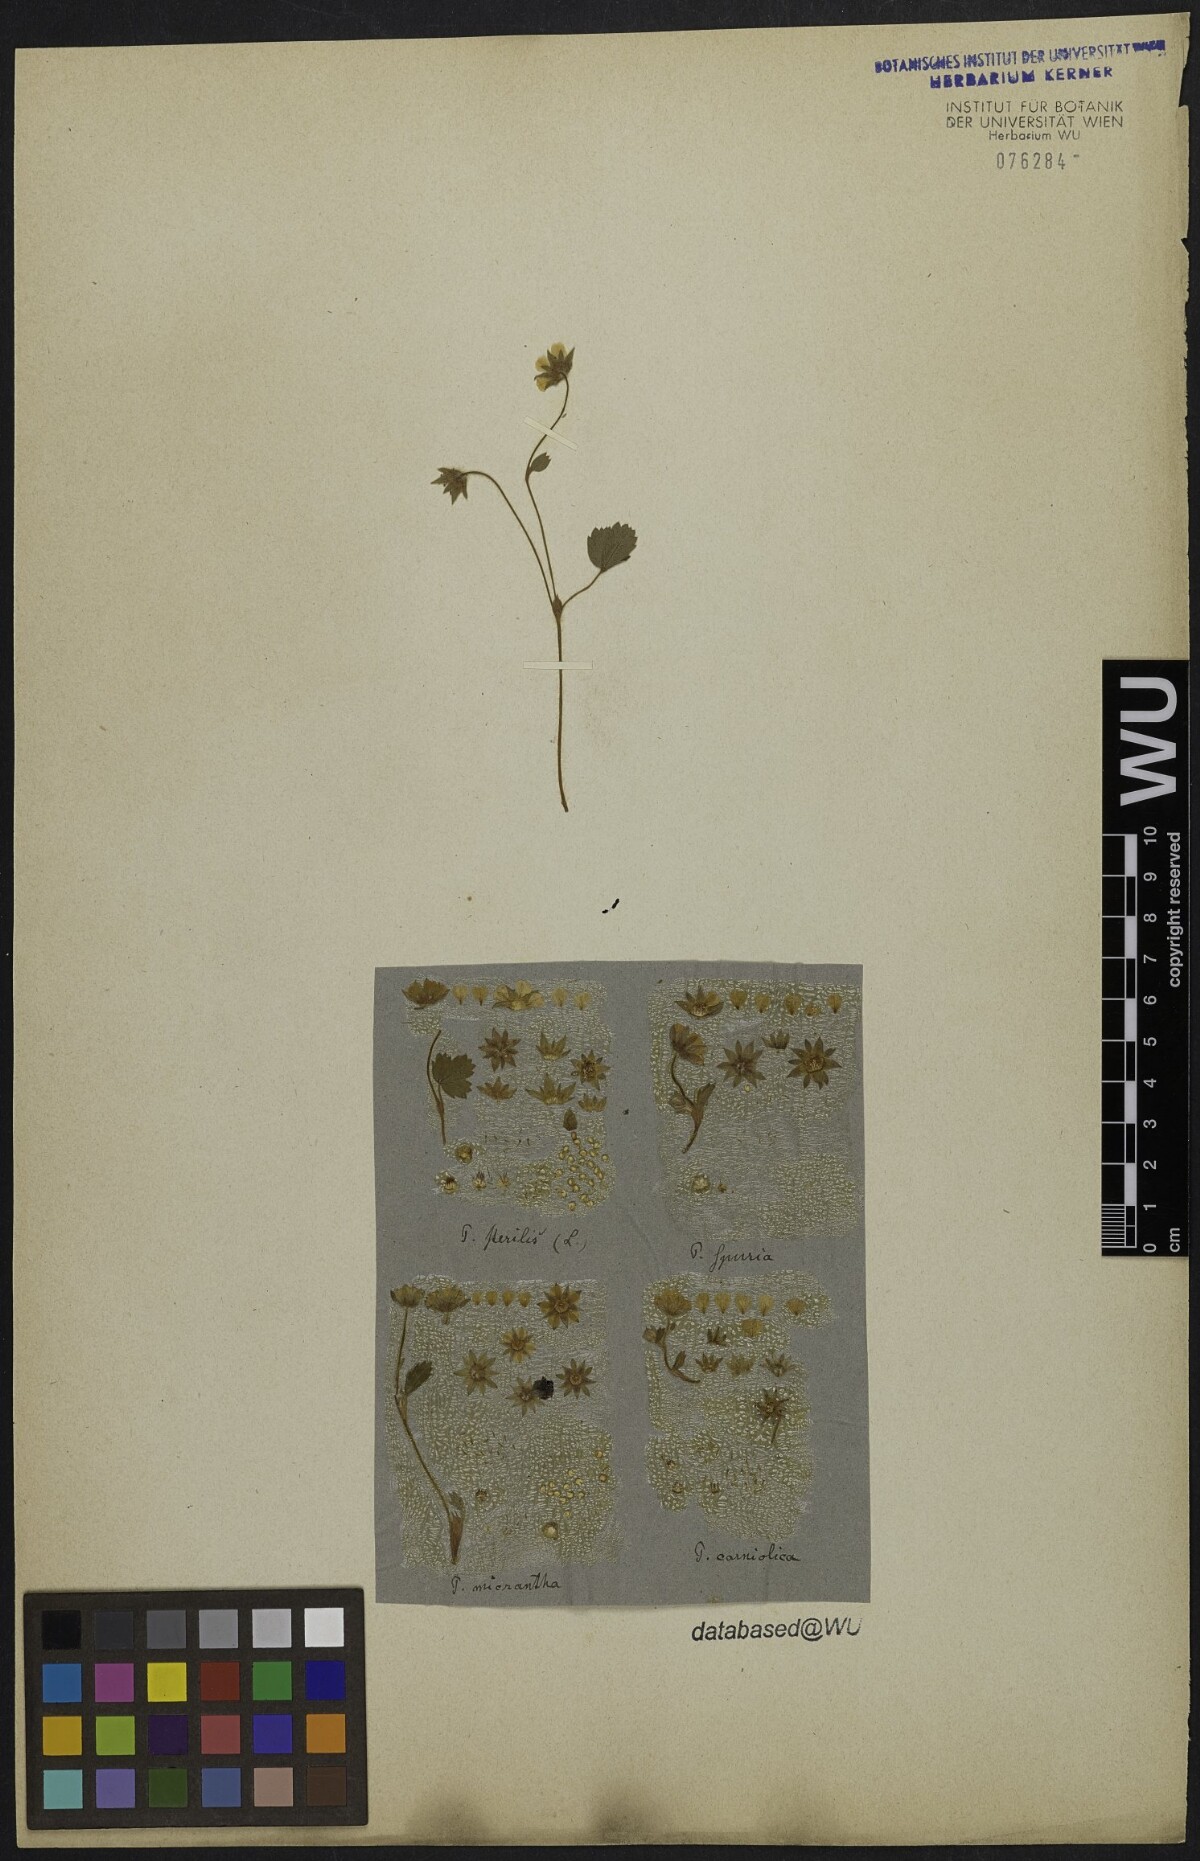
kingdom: Plantae
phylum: Tracheophyta
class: Magnoliopsida
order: Rosales
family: Rosaceae
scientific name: Rosaceae
